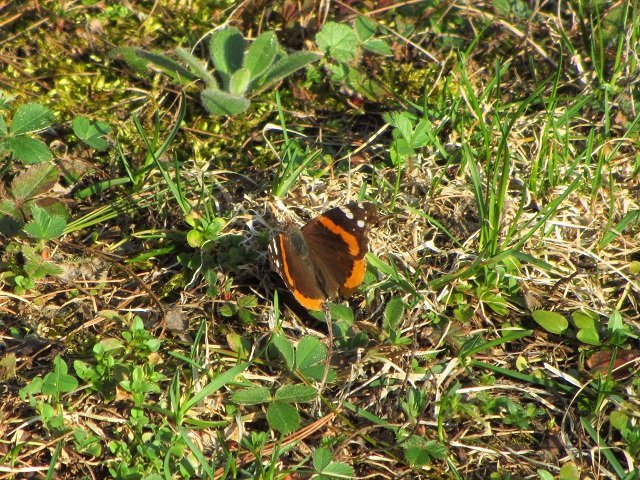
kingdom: Animalia
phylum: Arthropoda
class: Insecta
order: Lepidoptera
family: Nymphalidae
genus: Vanessa
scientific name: Vanessa atalanta
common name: Red Admiral
